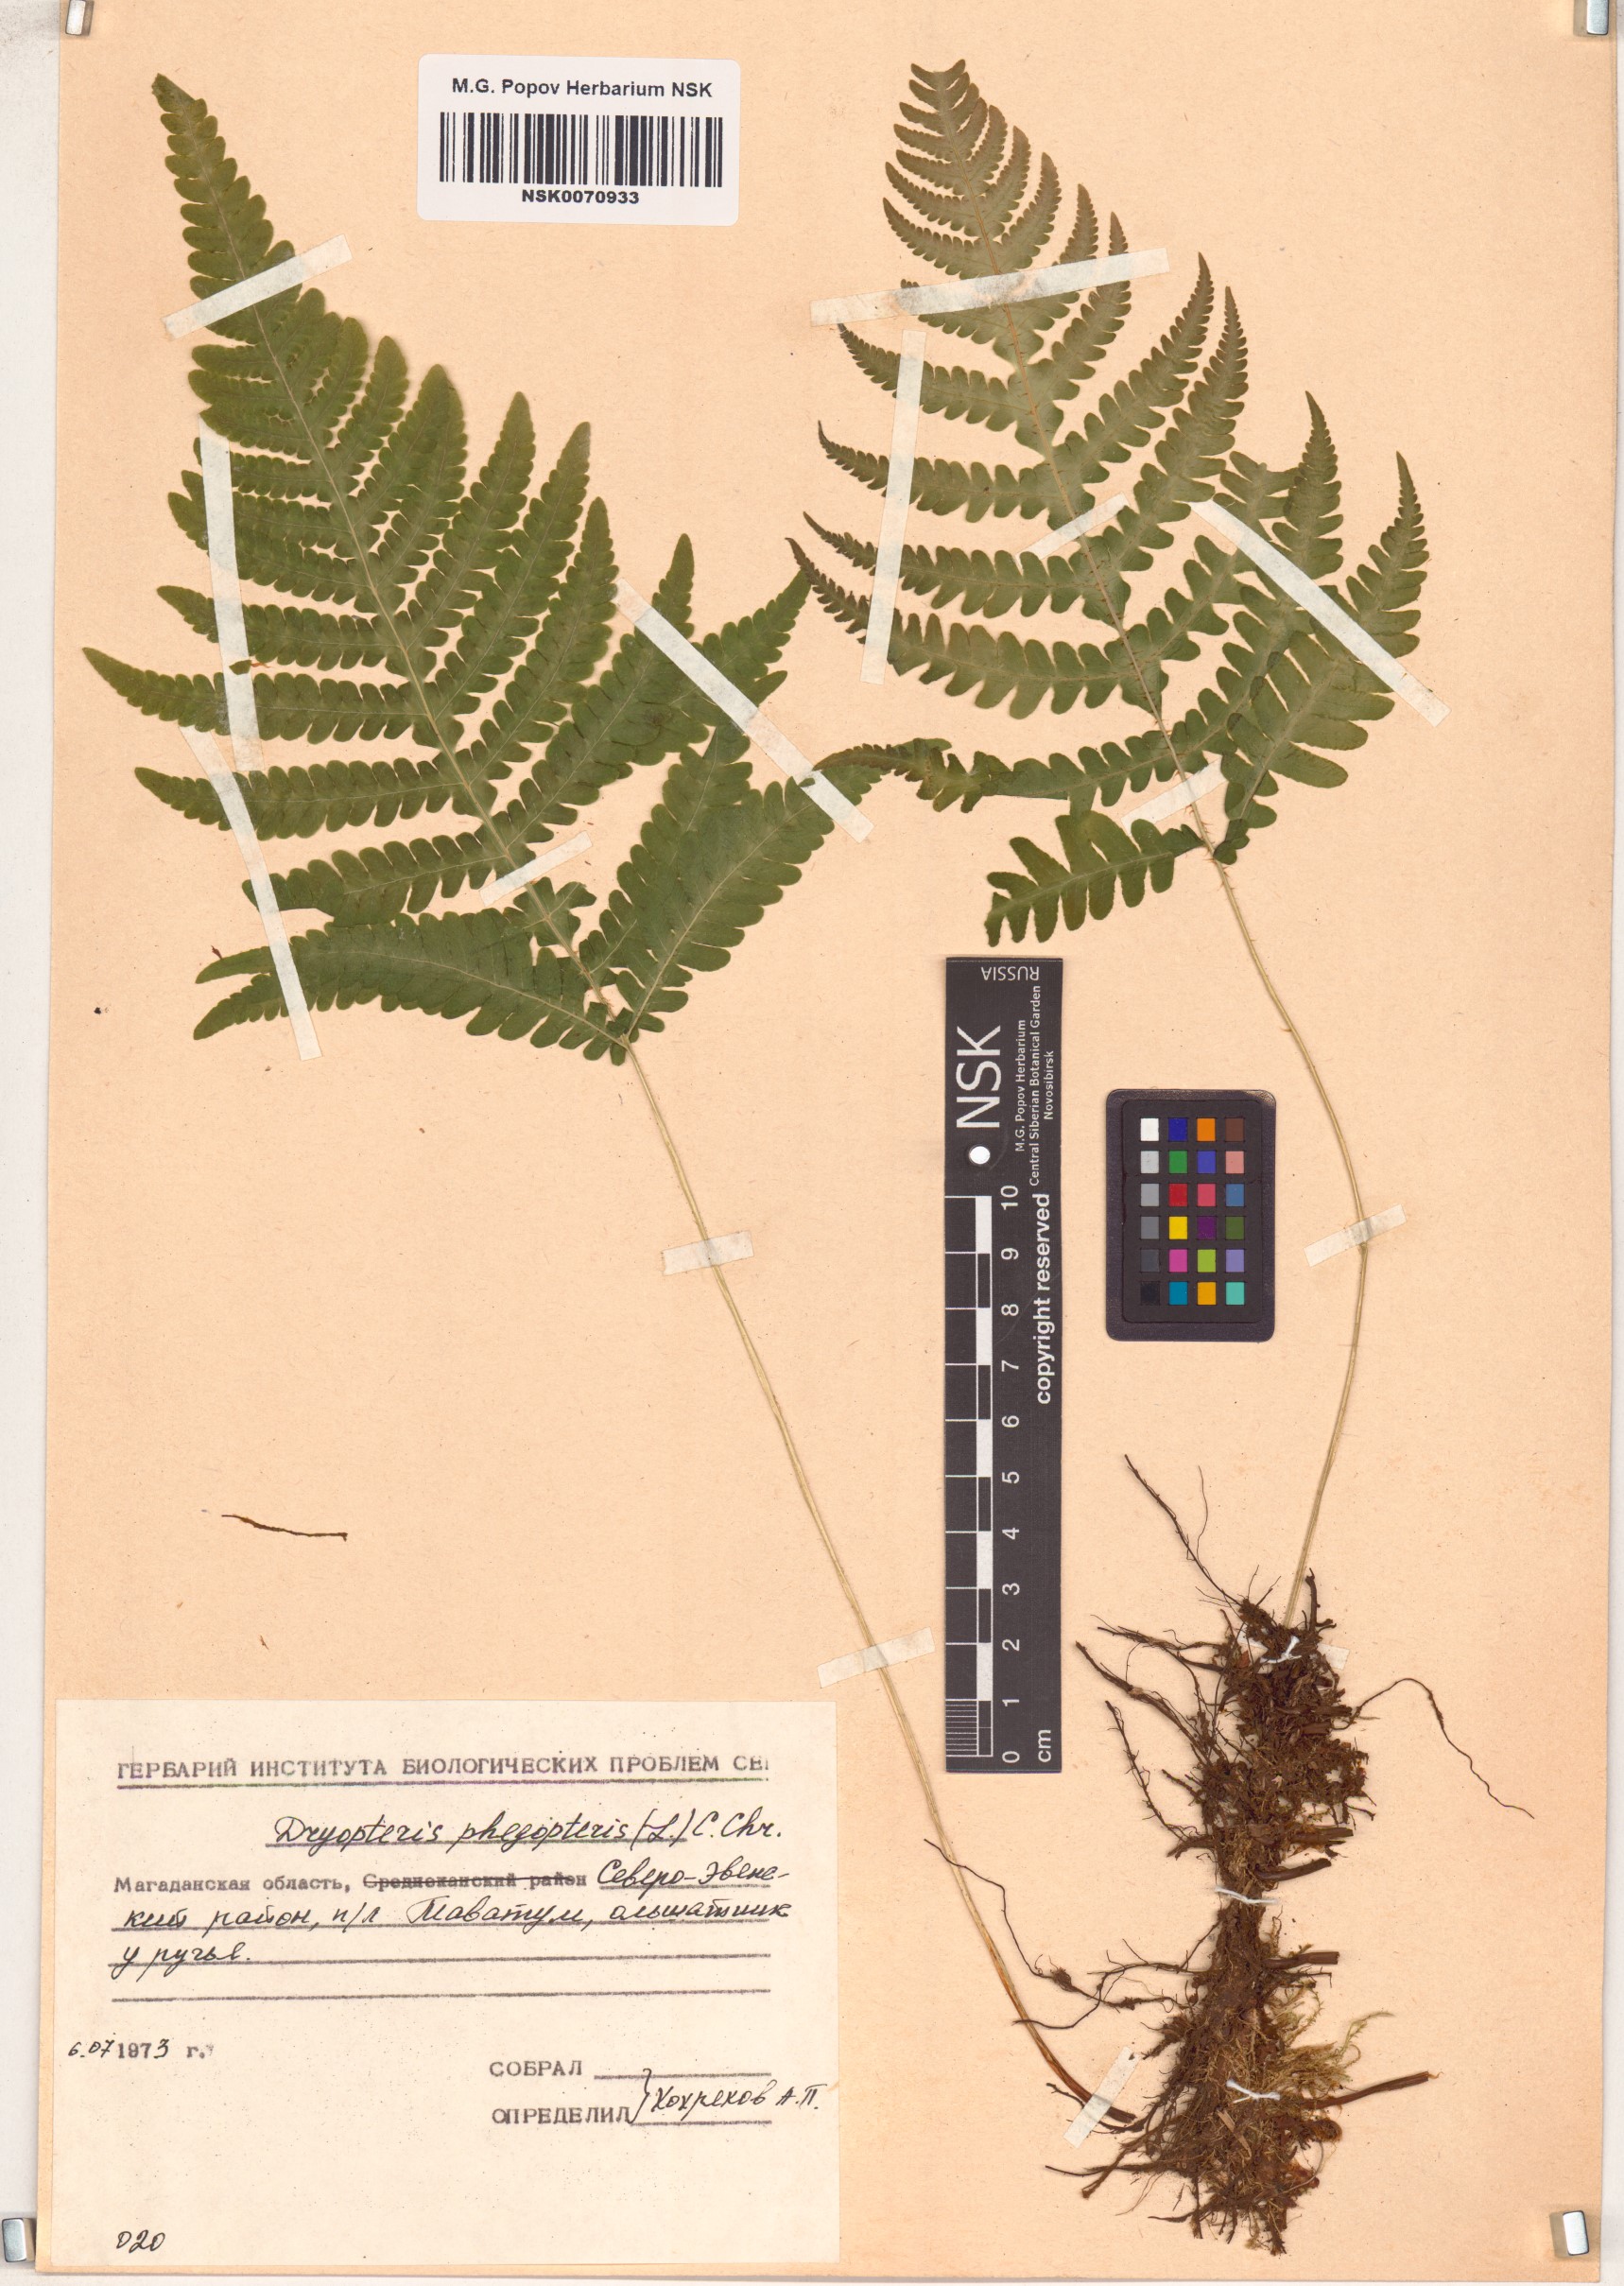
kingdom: Plantae
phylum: Tracheophyta
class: Polypodiopsida
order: Polypodiales
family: Thelypteridaceae
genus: Phegopteris
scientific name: Phegopteris connectilis
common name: Beech fern
